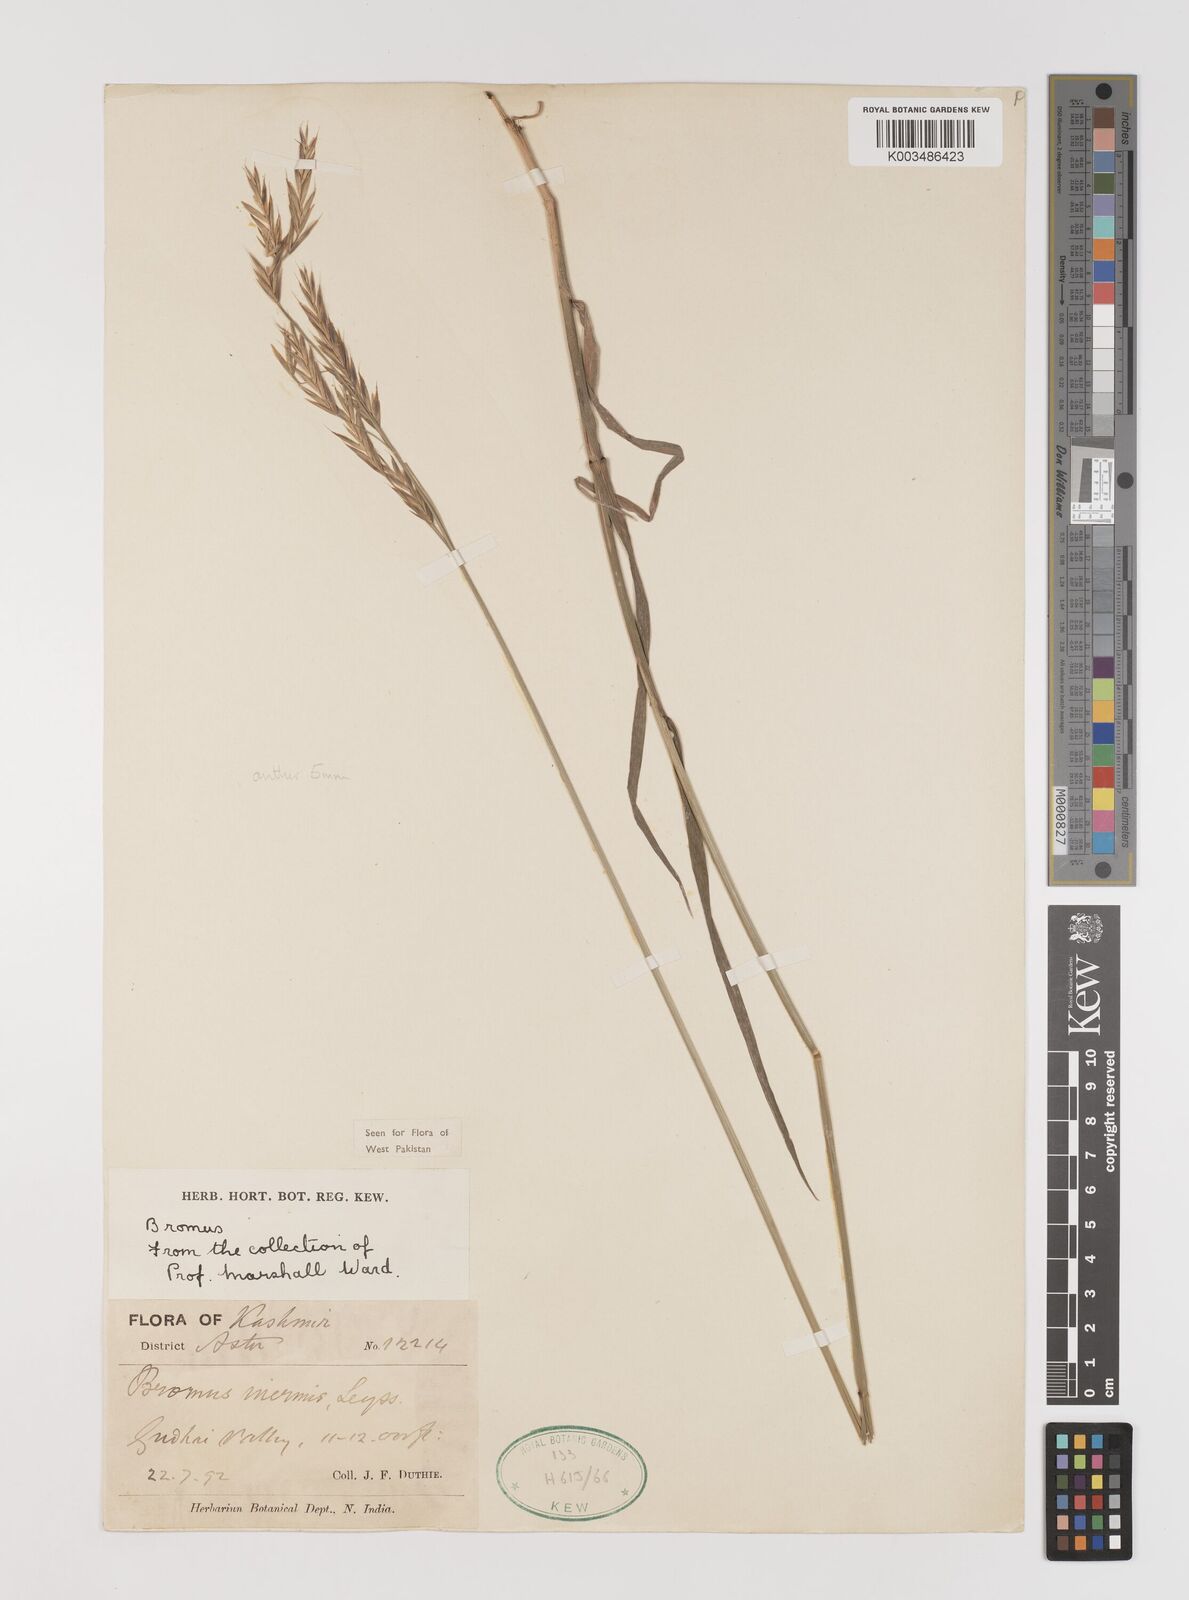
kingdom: Plantae
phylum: Tracheophyta
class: Liliopsida
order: Poales
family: Poaceae
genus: Bromus
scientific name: Bromus confinis
